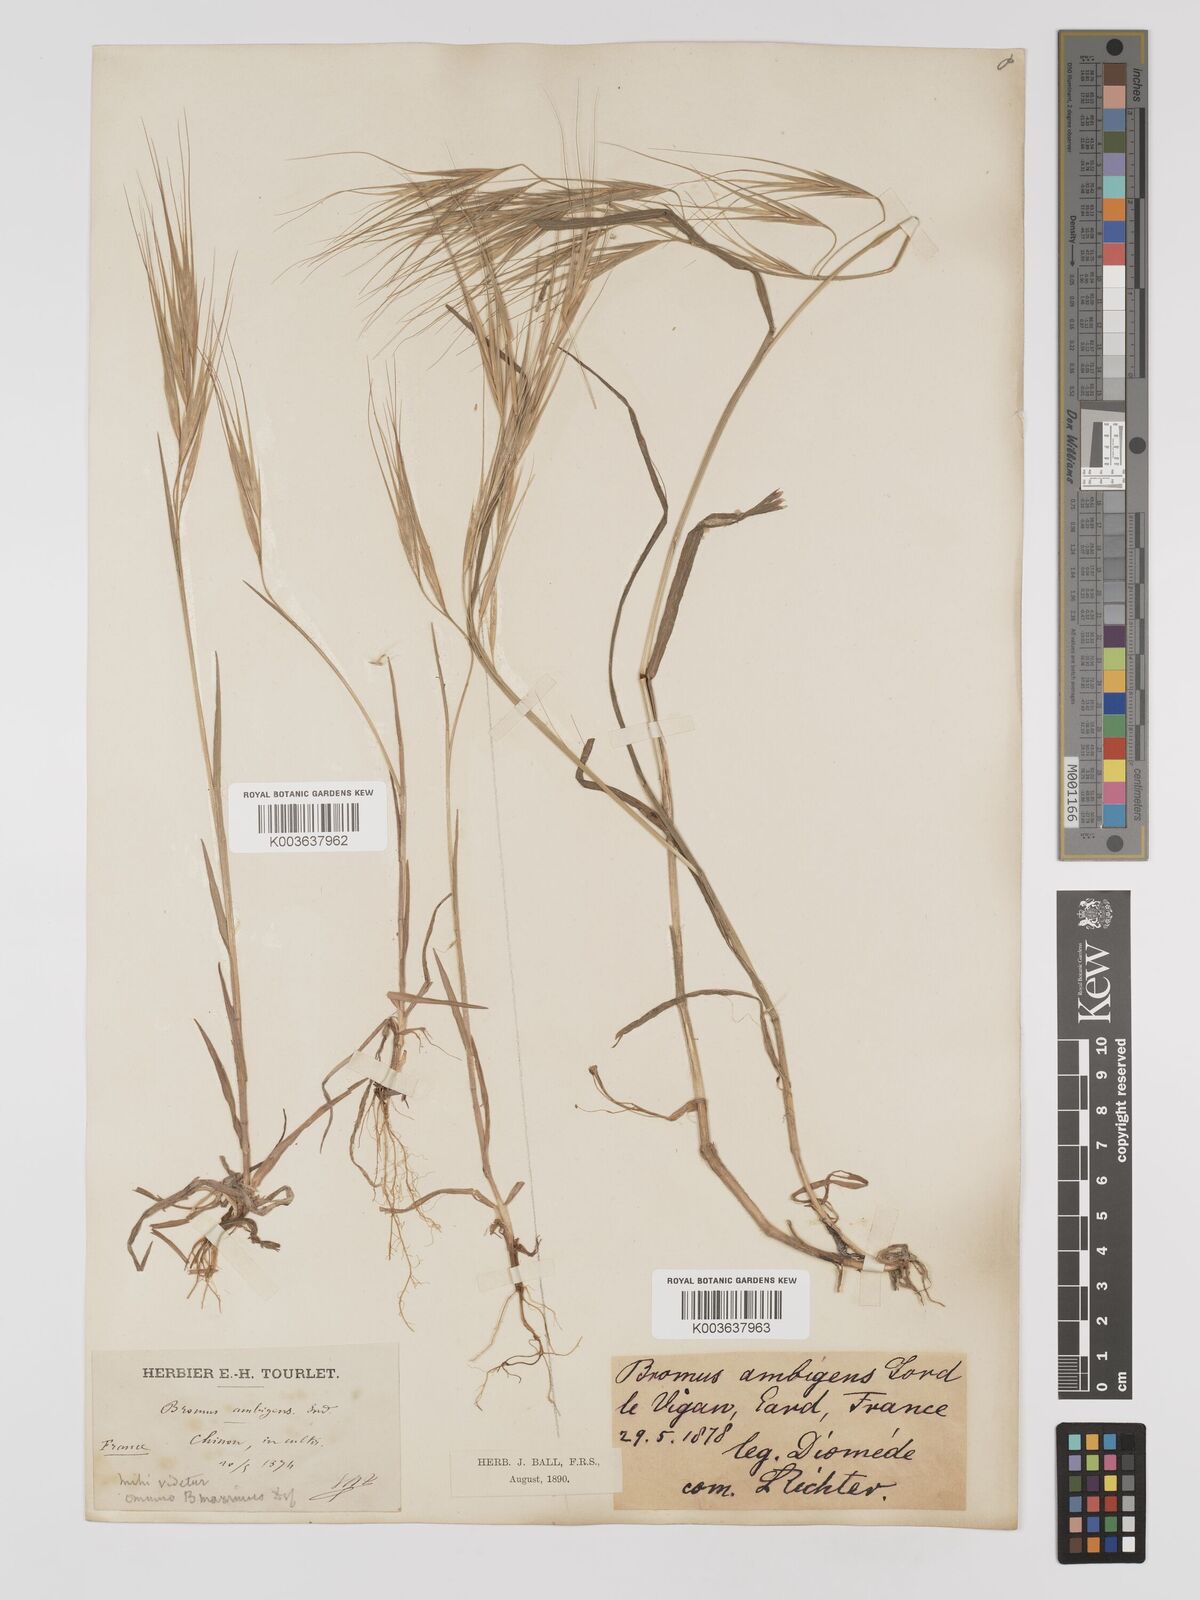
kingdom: Plantae
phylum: Tracheophyta
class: Liliopsida
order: Poales
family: Poaceae
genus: Bromus
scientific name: Bromus
